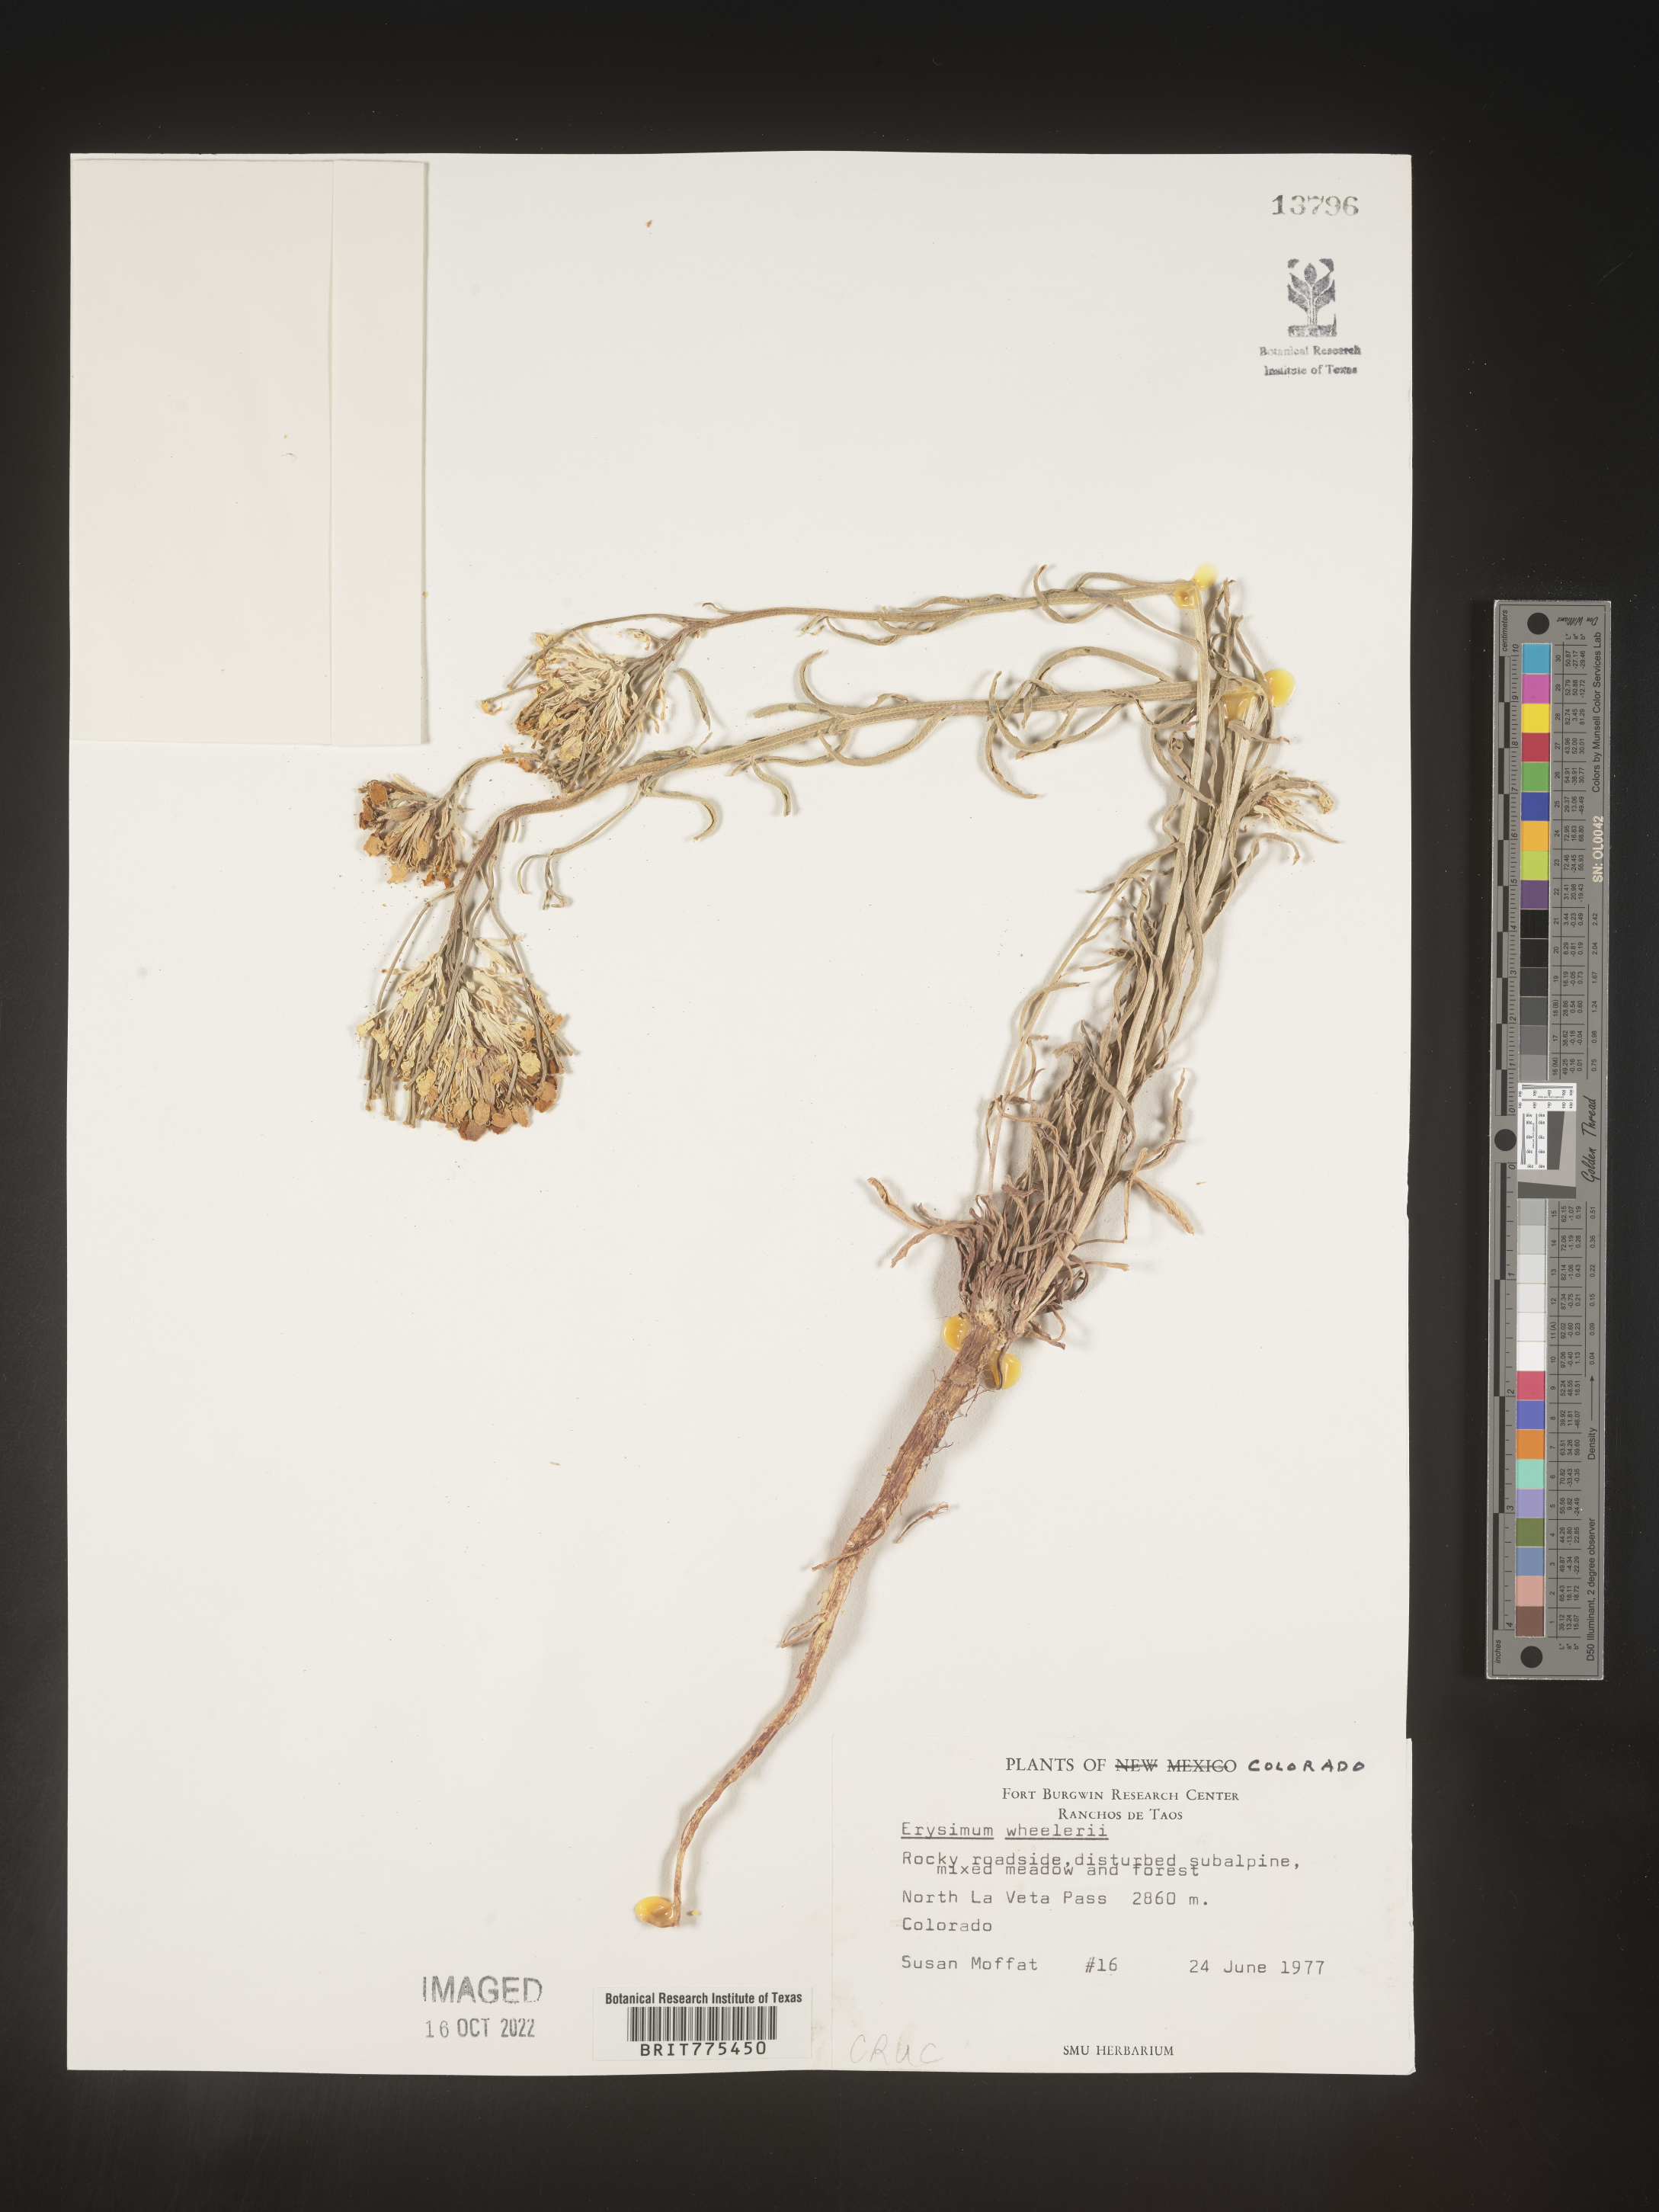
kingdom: Plantae
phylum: Tracheophyta
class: Magnoliopsida
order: Brassicales
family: Brassicaceae
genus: Erysimum
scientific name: Erysimum
